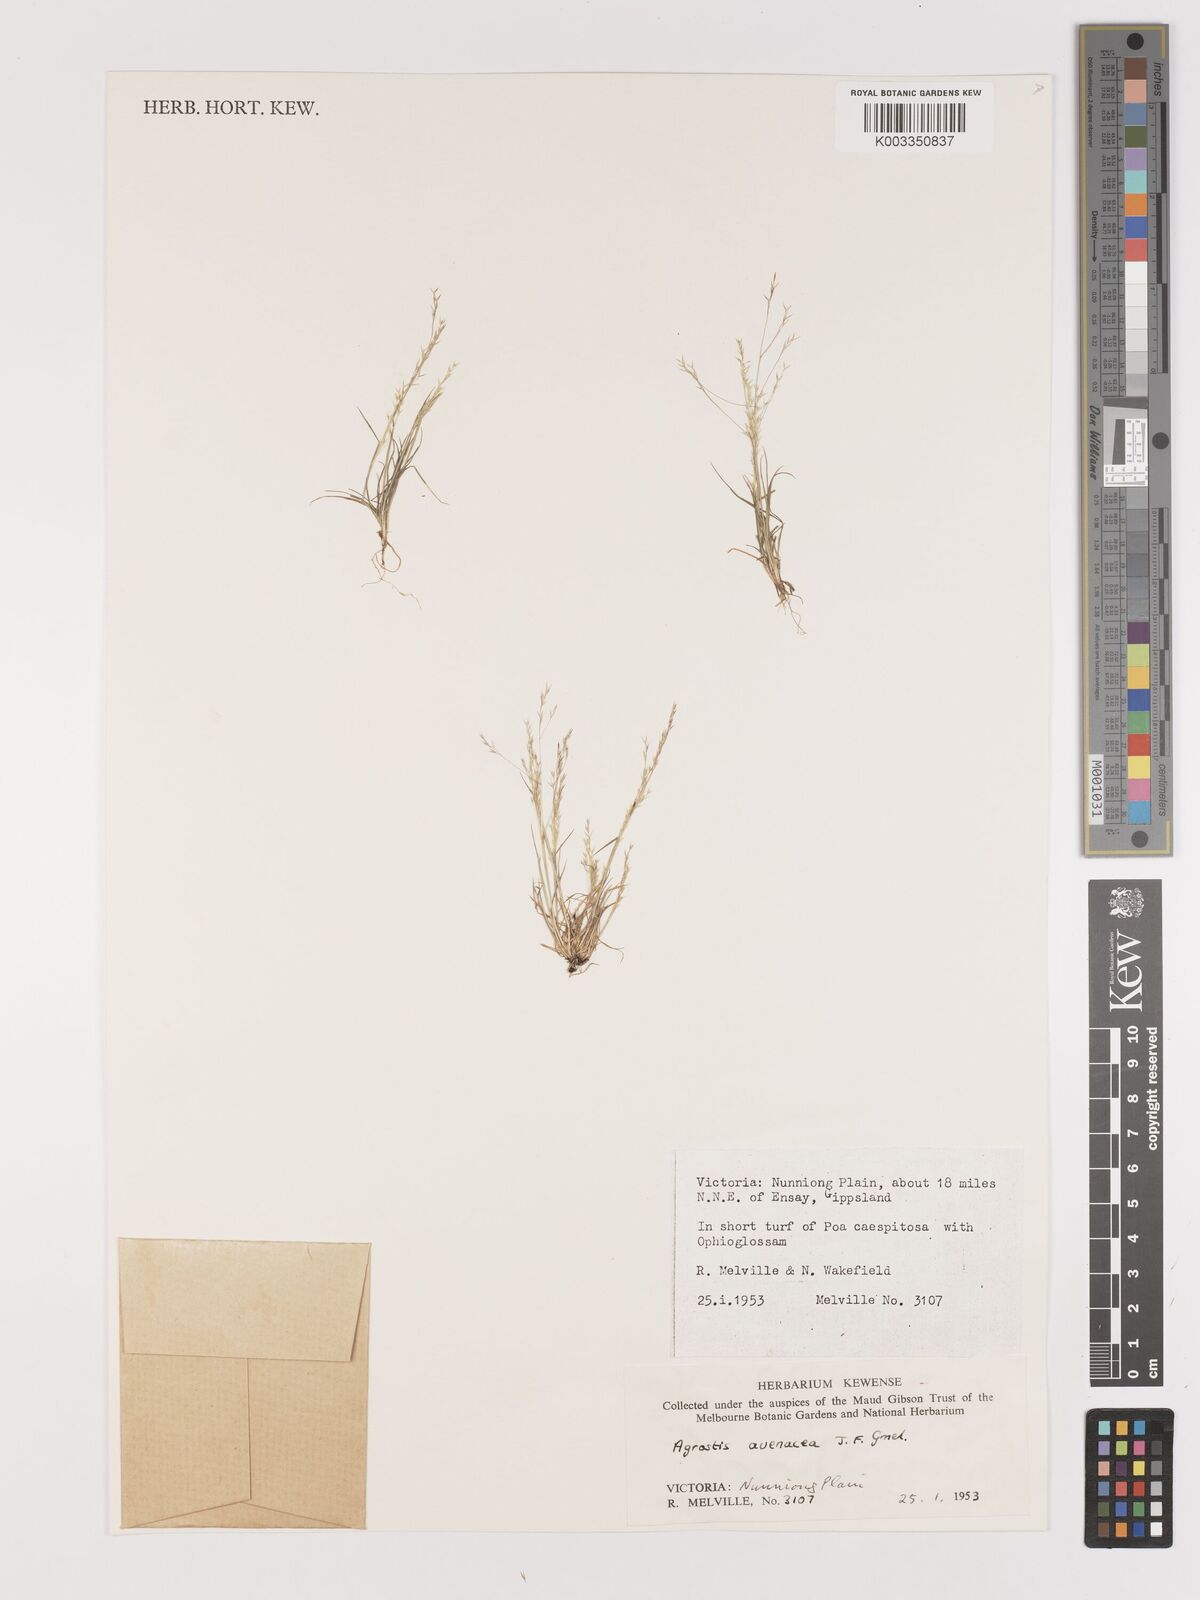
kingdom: Plantae
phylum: Tracheophyta
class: Liliopsida
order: Poales
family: Poaceae
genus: Lachnagrostis
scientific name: Lachnagrostis filiformis
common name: Bentgrass
